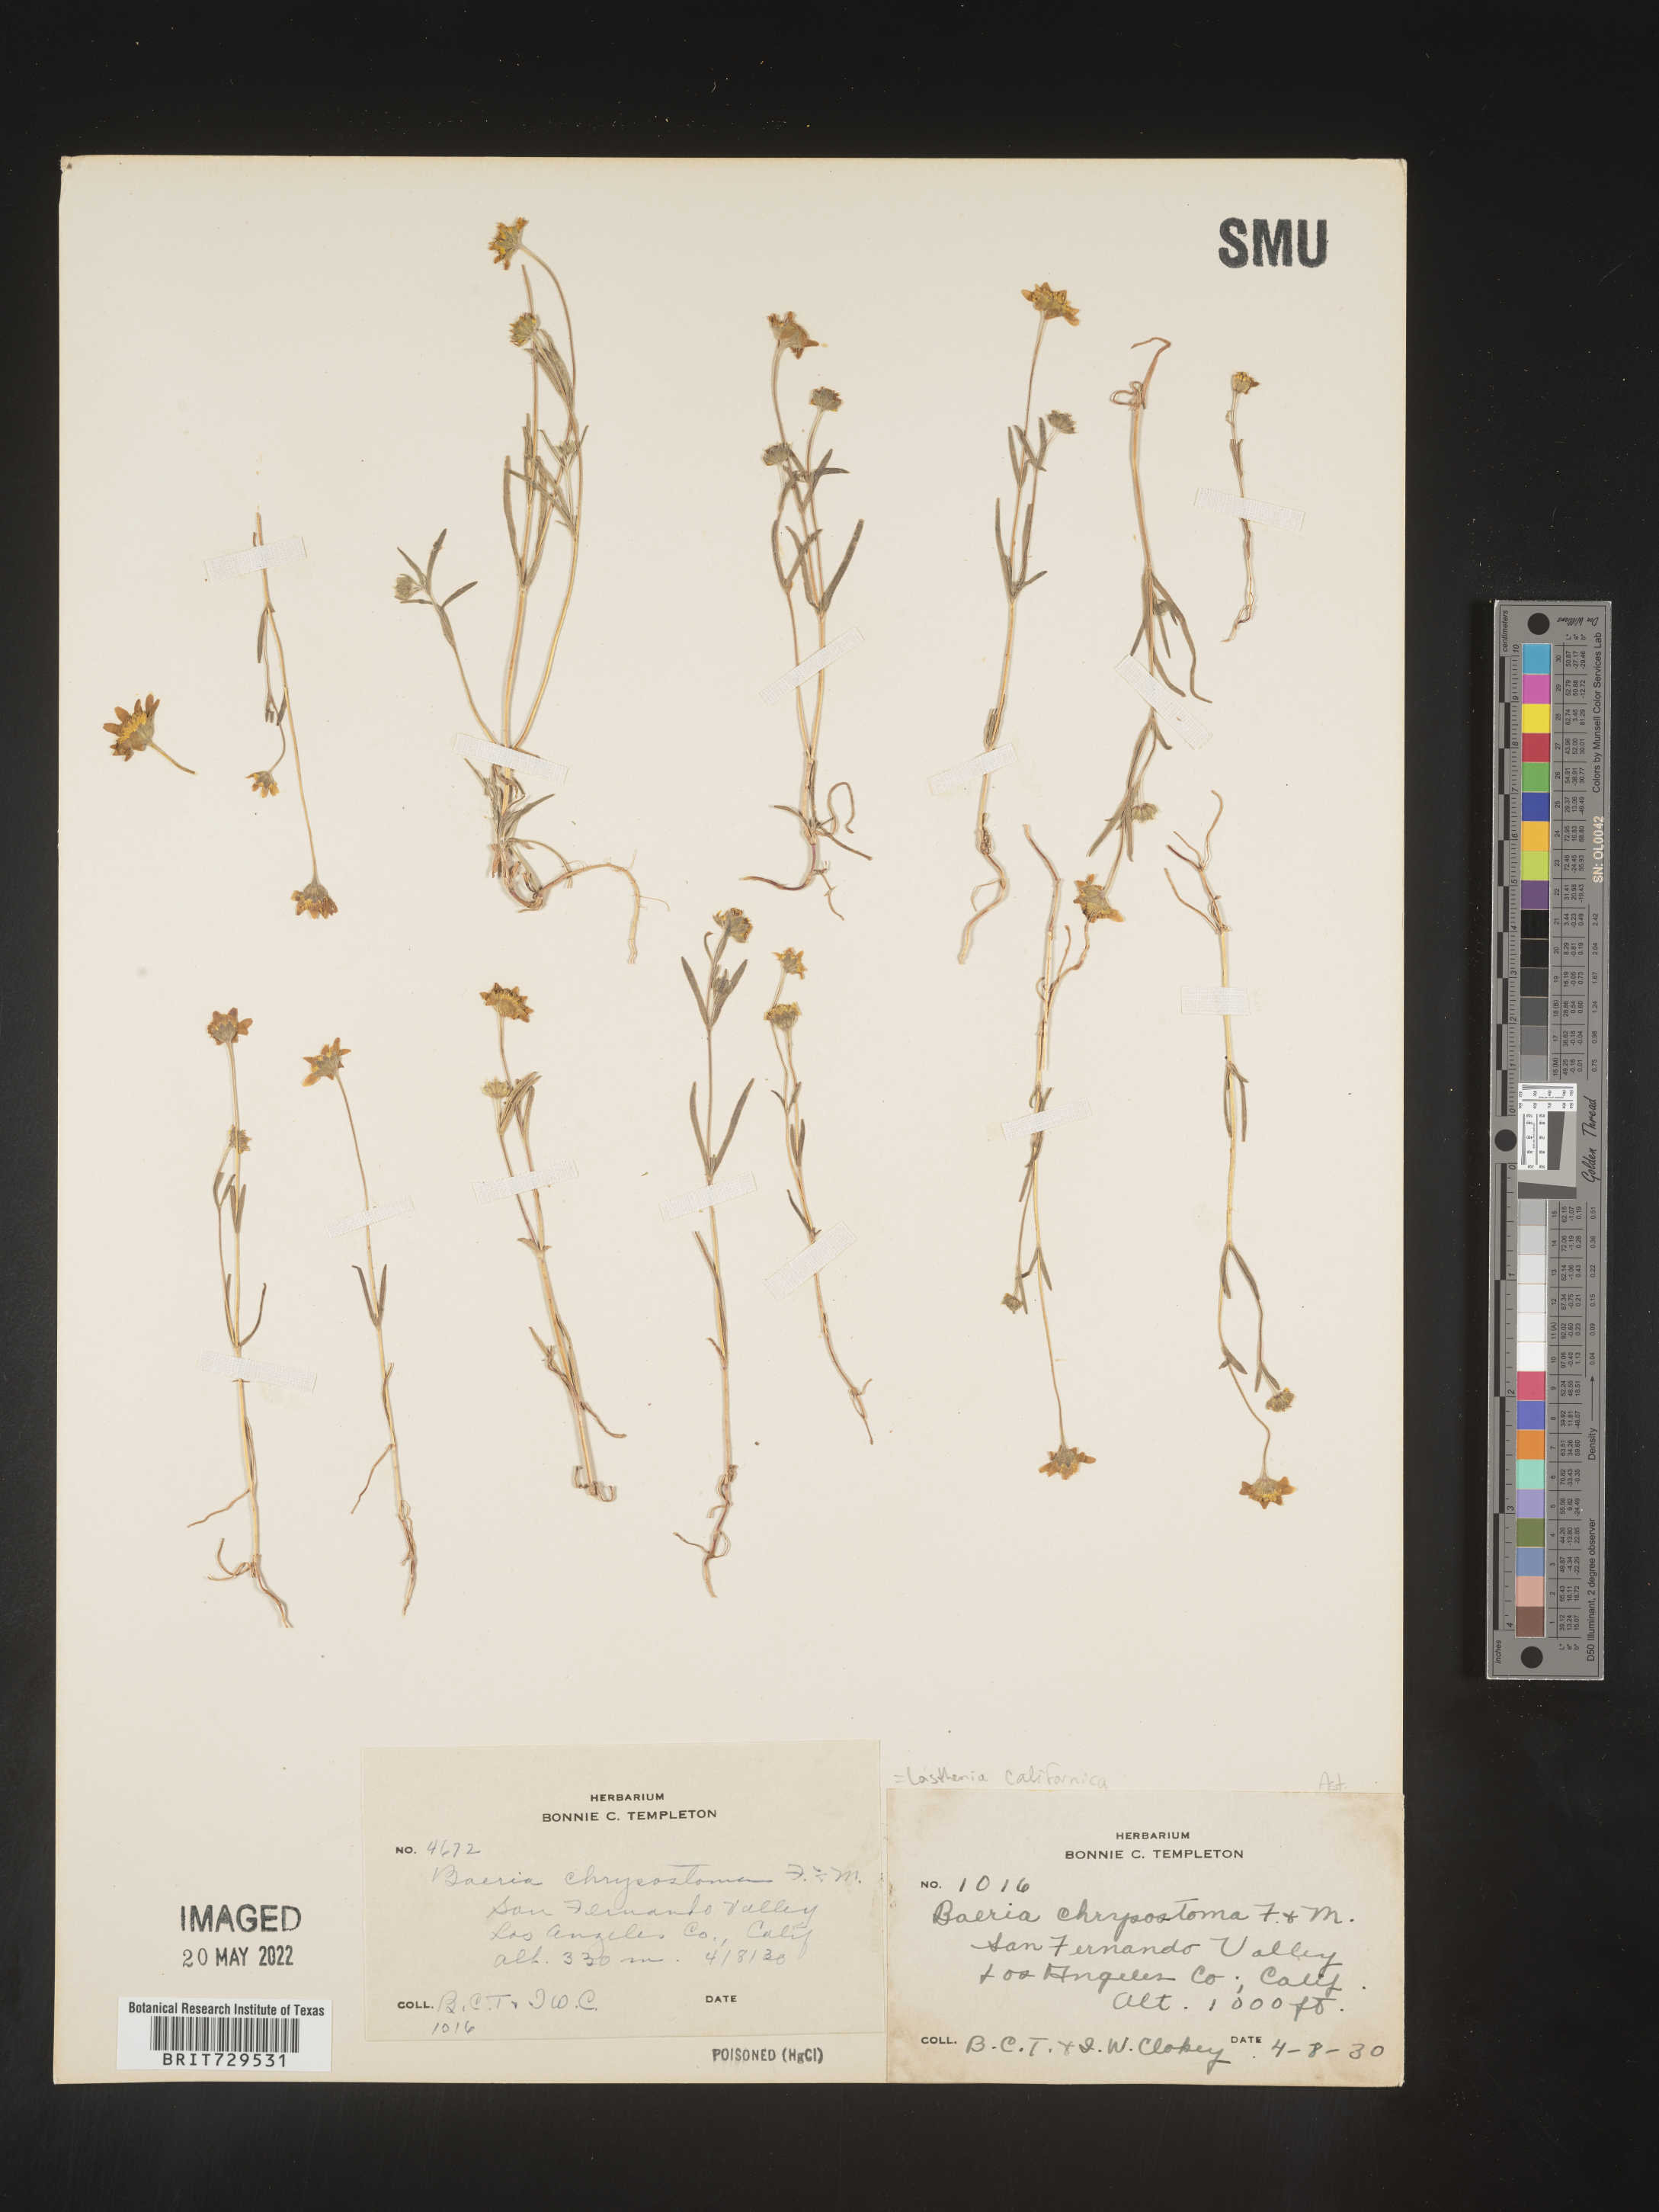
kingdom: Plantae
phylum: Tracheophyta
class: Magnoliopsida
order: Asterales
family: Asteraceae
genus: Lasthenia
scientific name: Lasthenia
